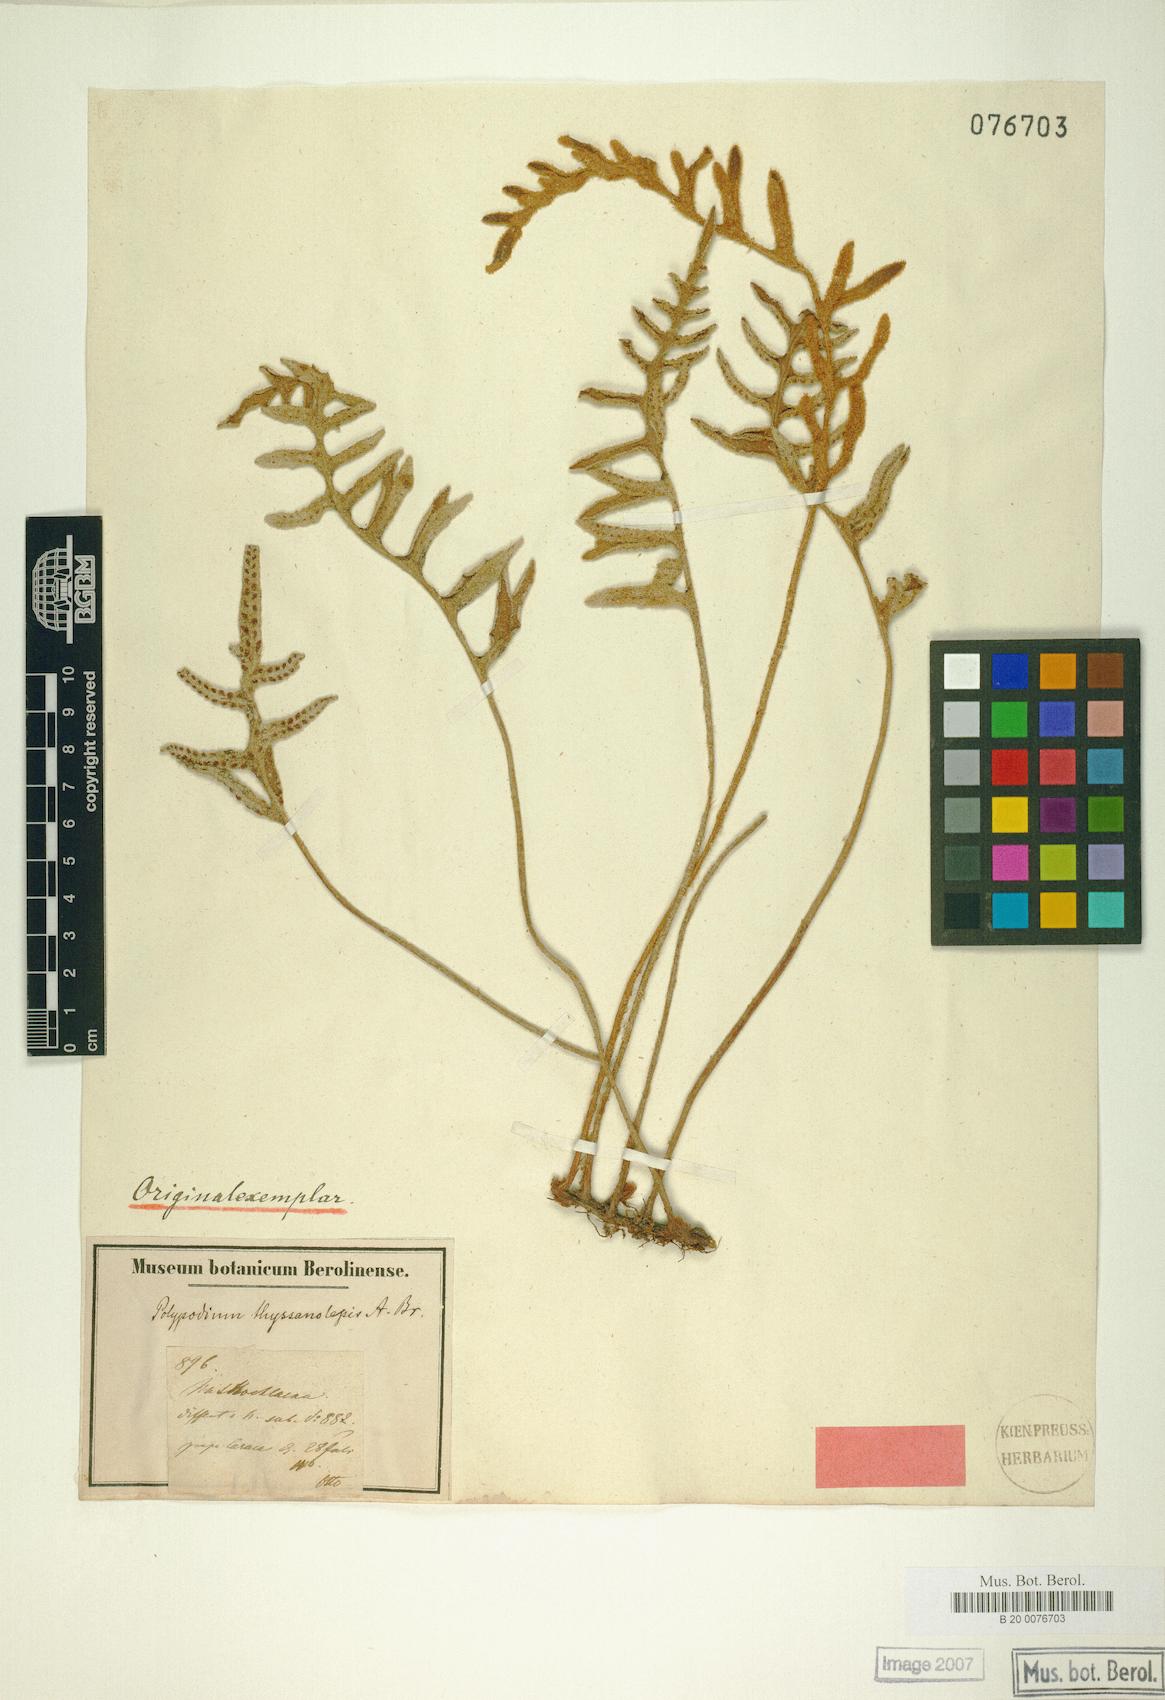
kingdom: Plantae
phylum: Tracheophyta
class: Polypodiopsida
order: Polypodiales
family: Polypodiaceae
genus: Pleopeltis
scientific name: Pleopeltis thyssanolepis
